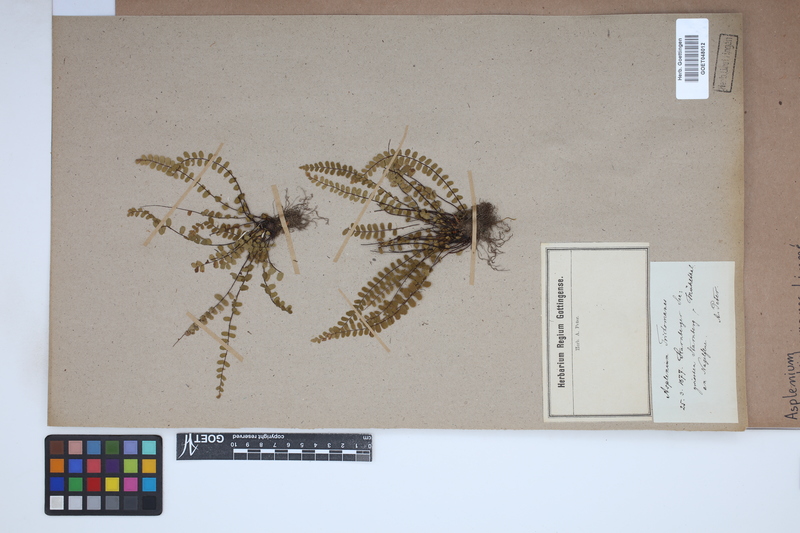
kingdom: Plantae
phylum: Tracheophyta
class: Polypodiopsida
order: Polypodiales
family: Aspleniaceae
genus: Asplenium
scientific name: Asplenium trichomanes
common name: Maidenhair spleenwort
